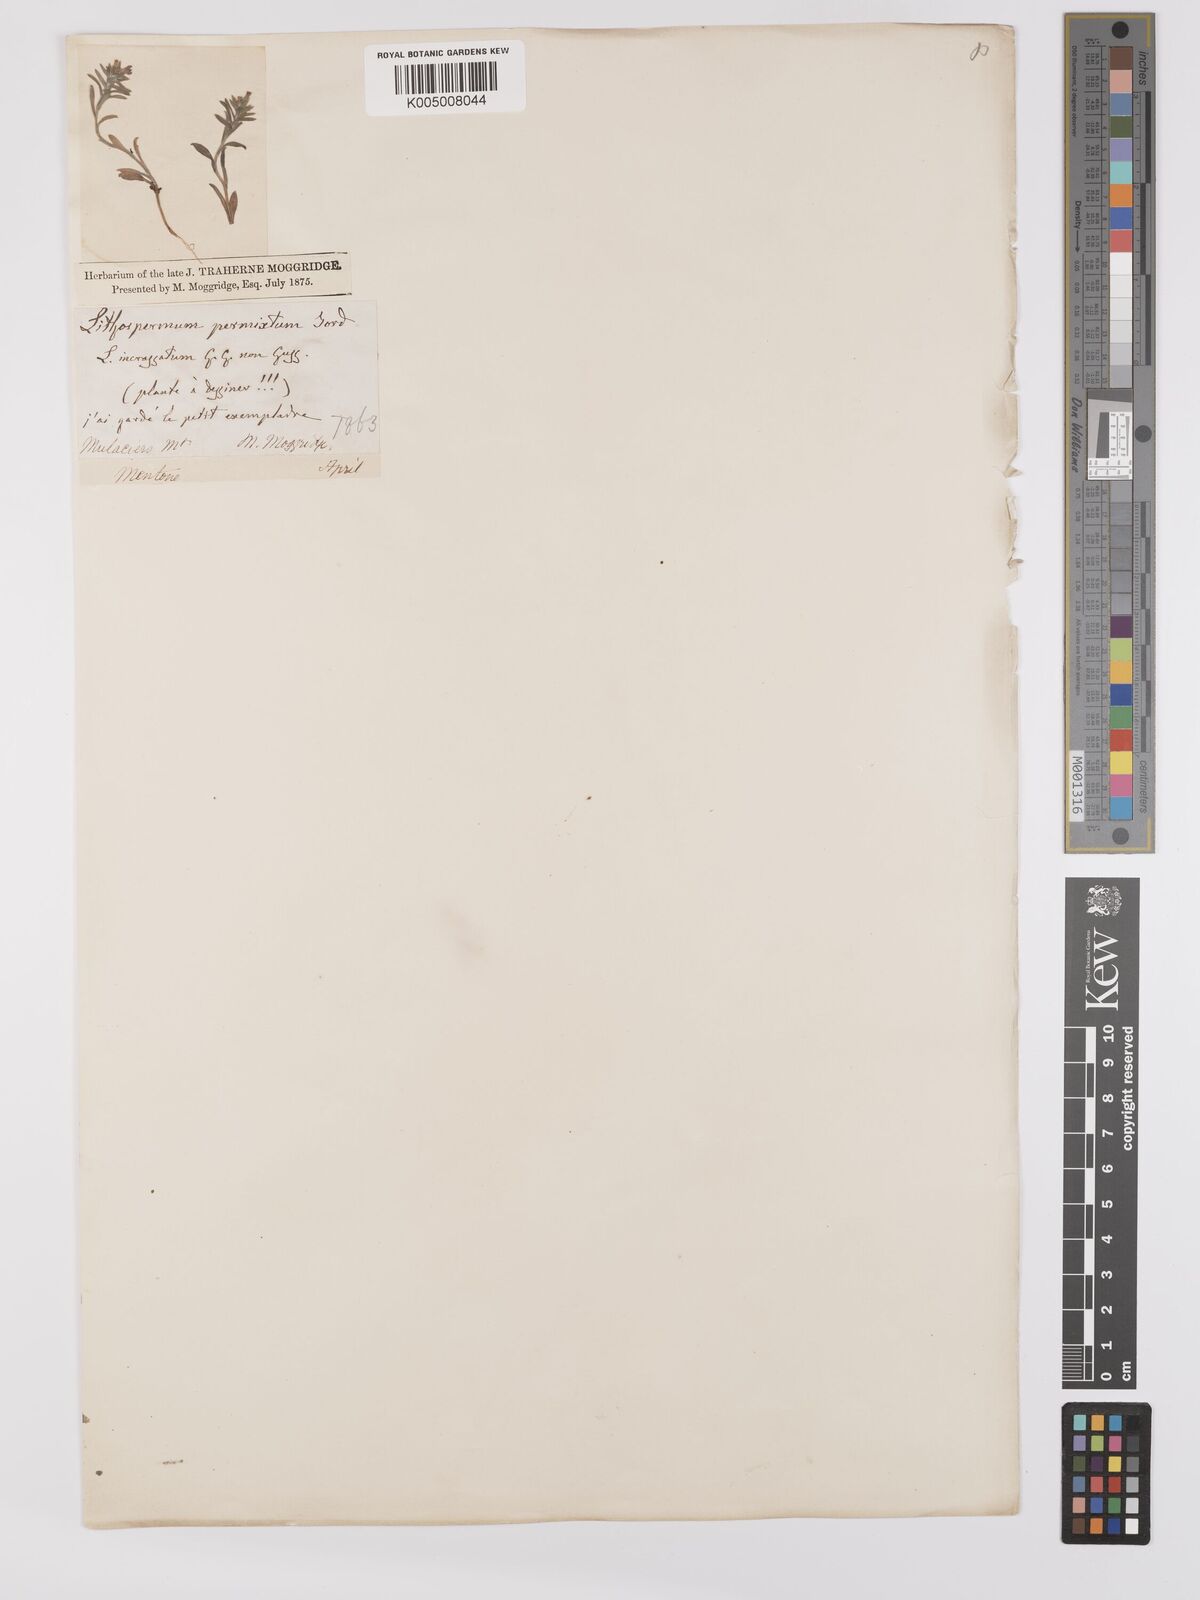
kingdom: Plantae
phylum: Tracheophyta
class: Magnoliopsida
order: Boraginales
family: Boraginaceae
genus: Buglossoides
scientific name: Buglossoides incrassata
